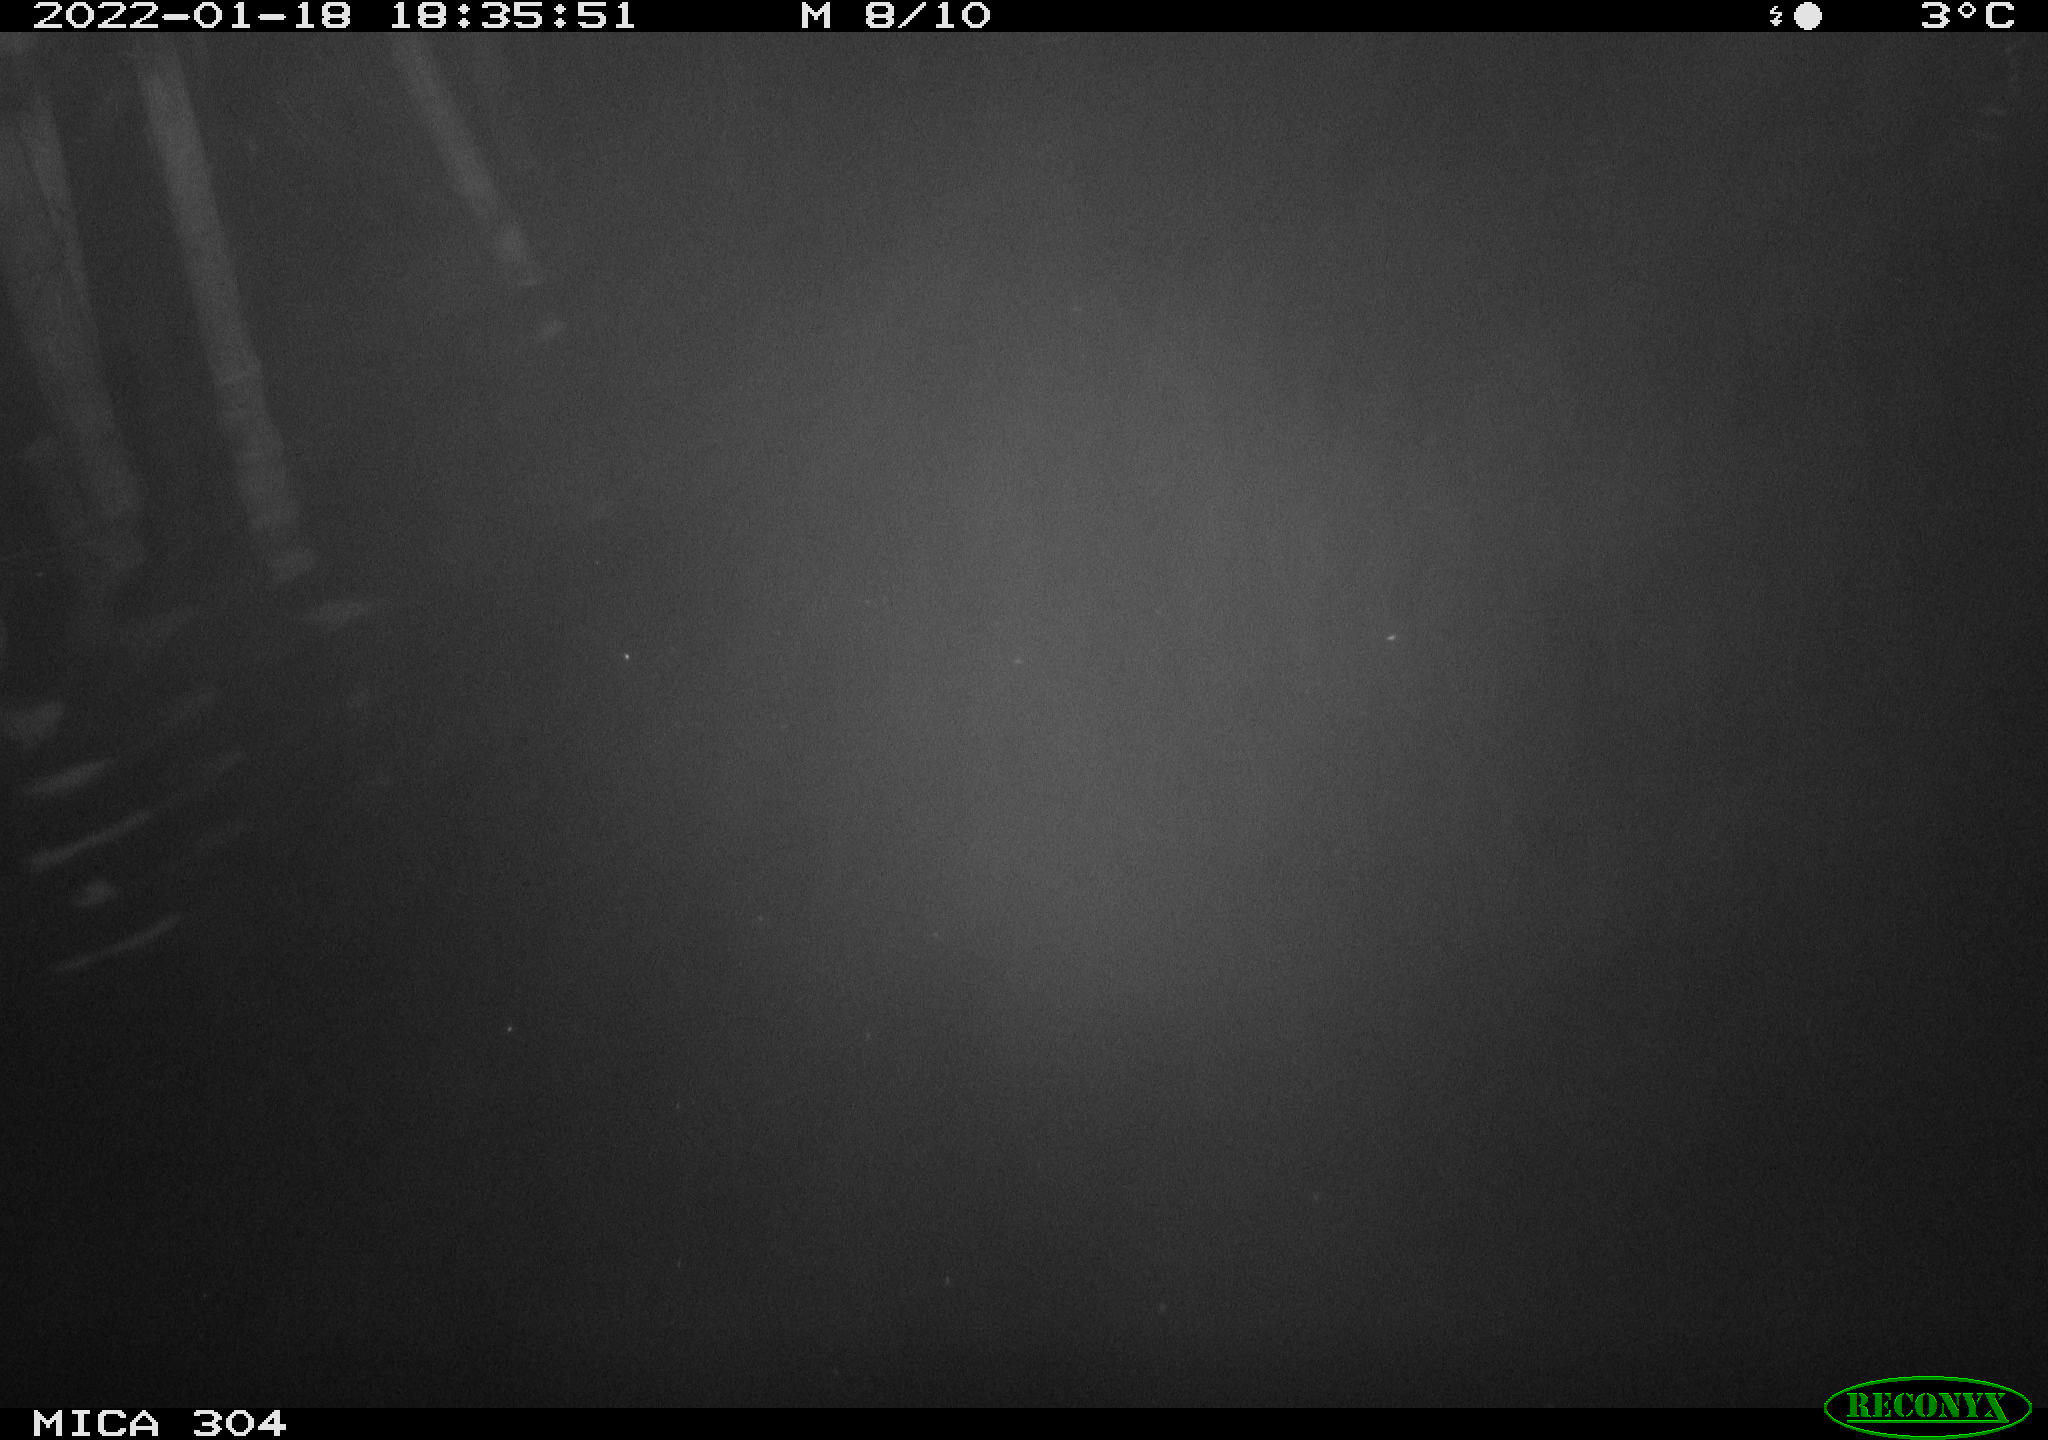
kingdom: Animalia
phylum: Chordata
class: Mammalia
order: Rodentia
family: Cricetidae
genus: Ondatra
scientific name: Ondatra zibethicus
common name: Muskrat
